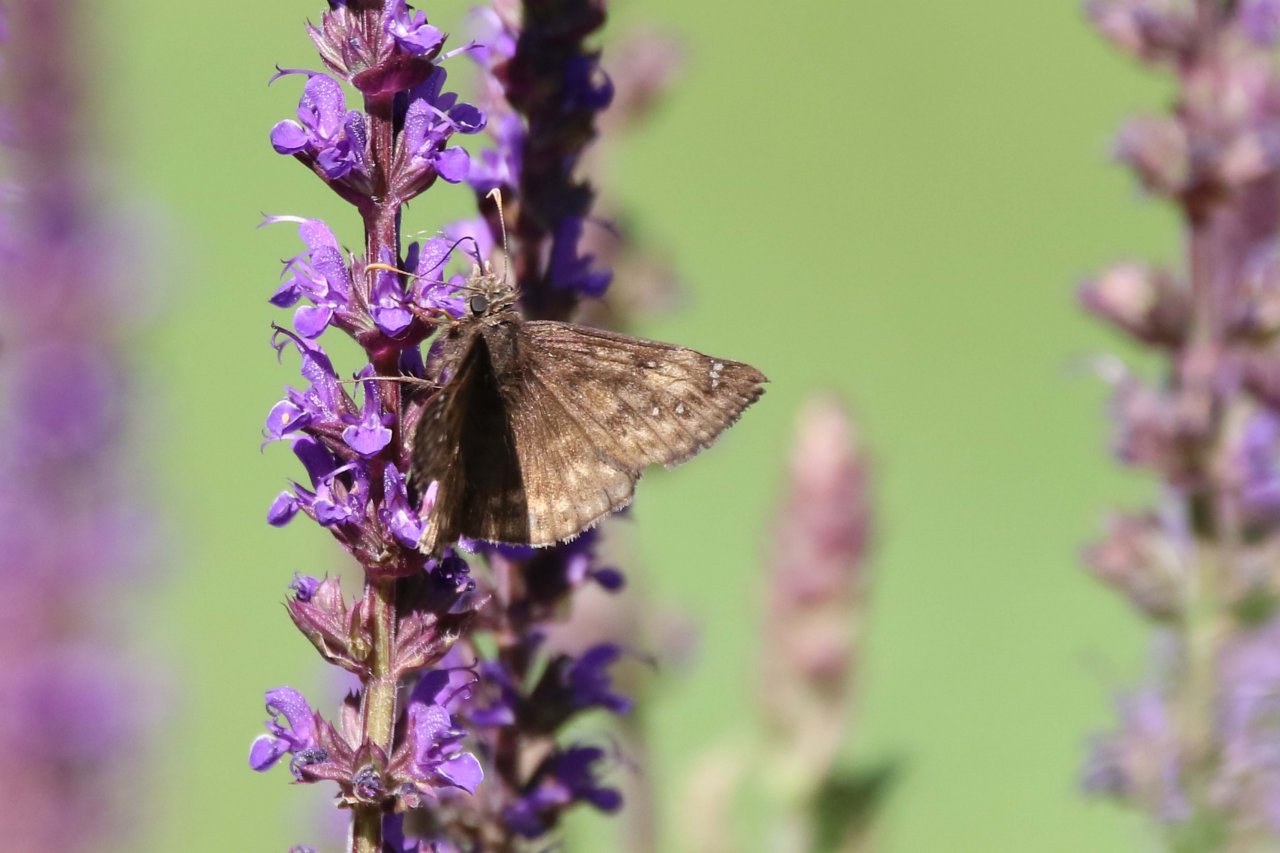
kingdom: Animalia
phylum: Arthropoda
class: Insecta
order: Lepidoptera
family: Hesperiidae
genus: Gesta
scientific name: Gesta
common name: Juvenal's Duskywing
